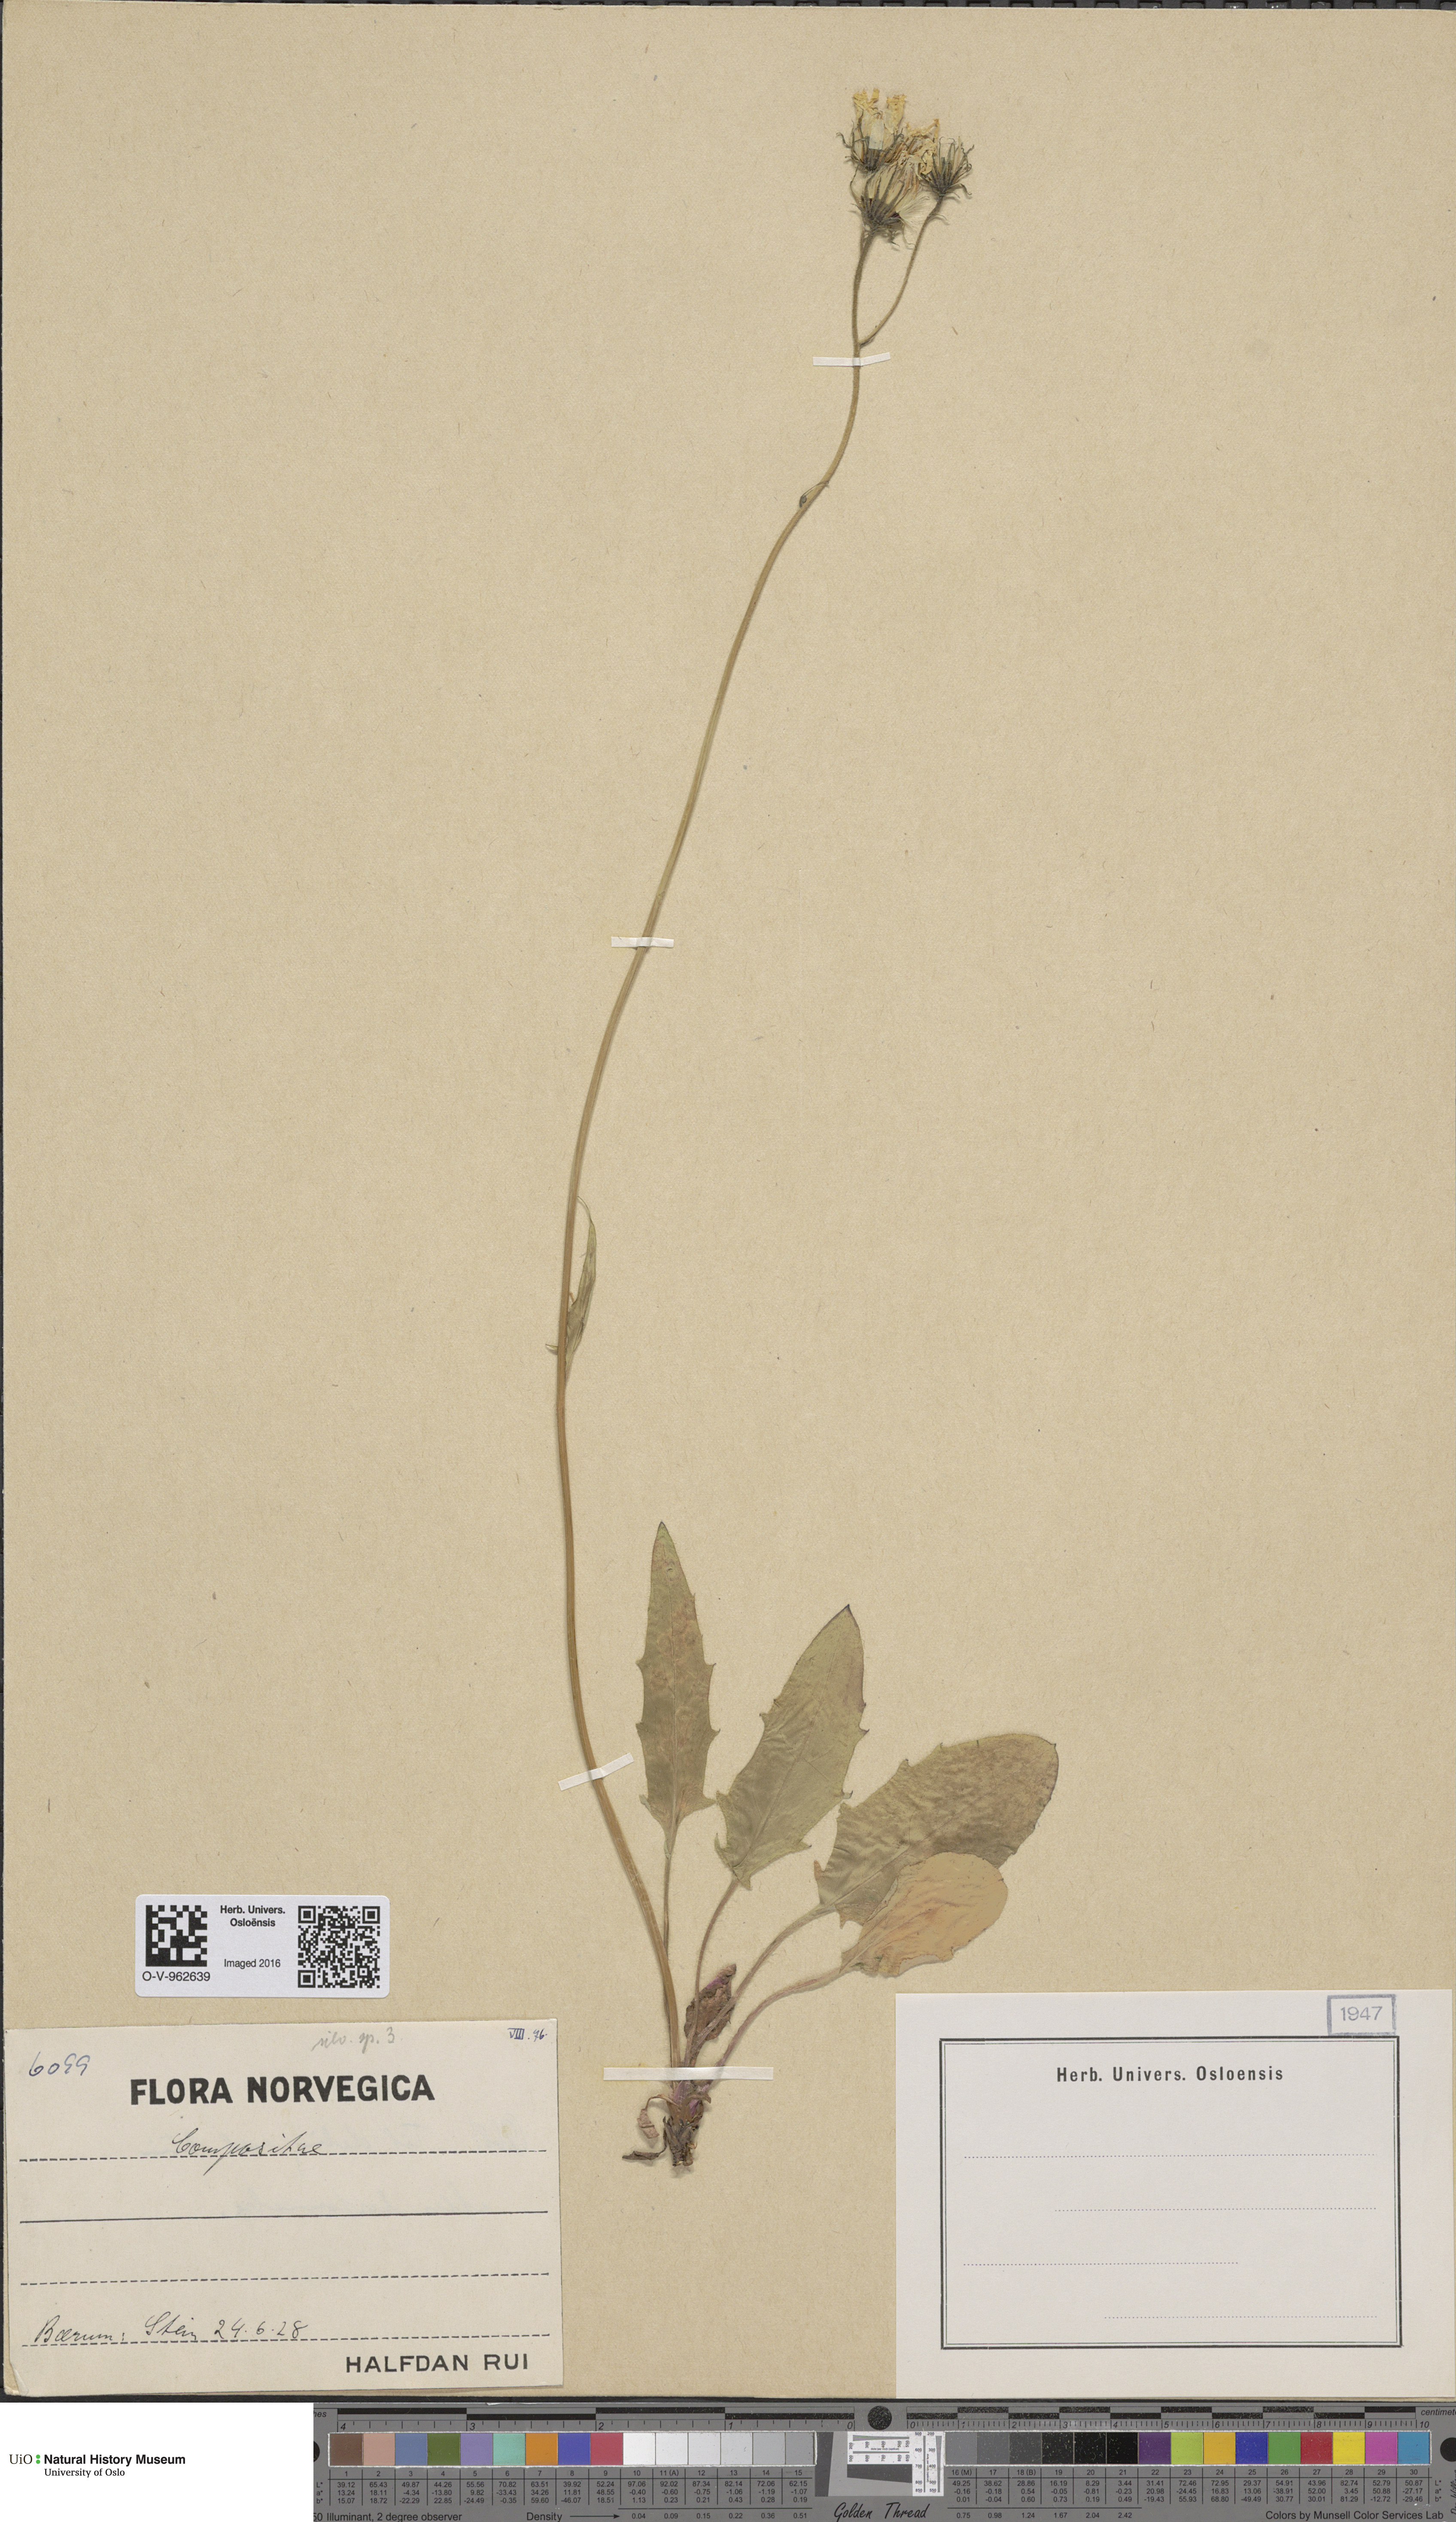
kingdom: Plantae
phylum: Tracheophyta
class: Magnoliopsida
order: Asterales
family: Asteraceae
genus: Hieracium
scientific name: Hieracium
